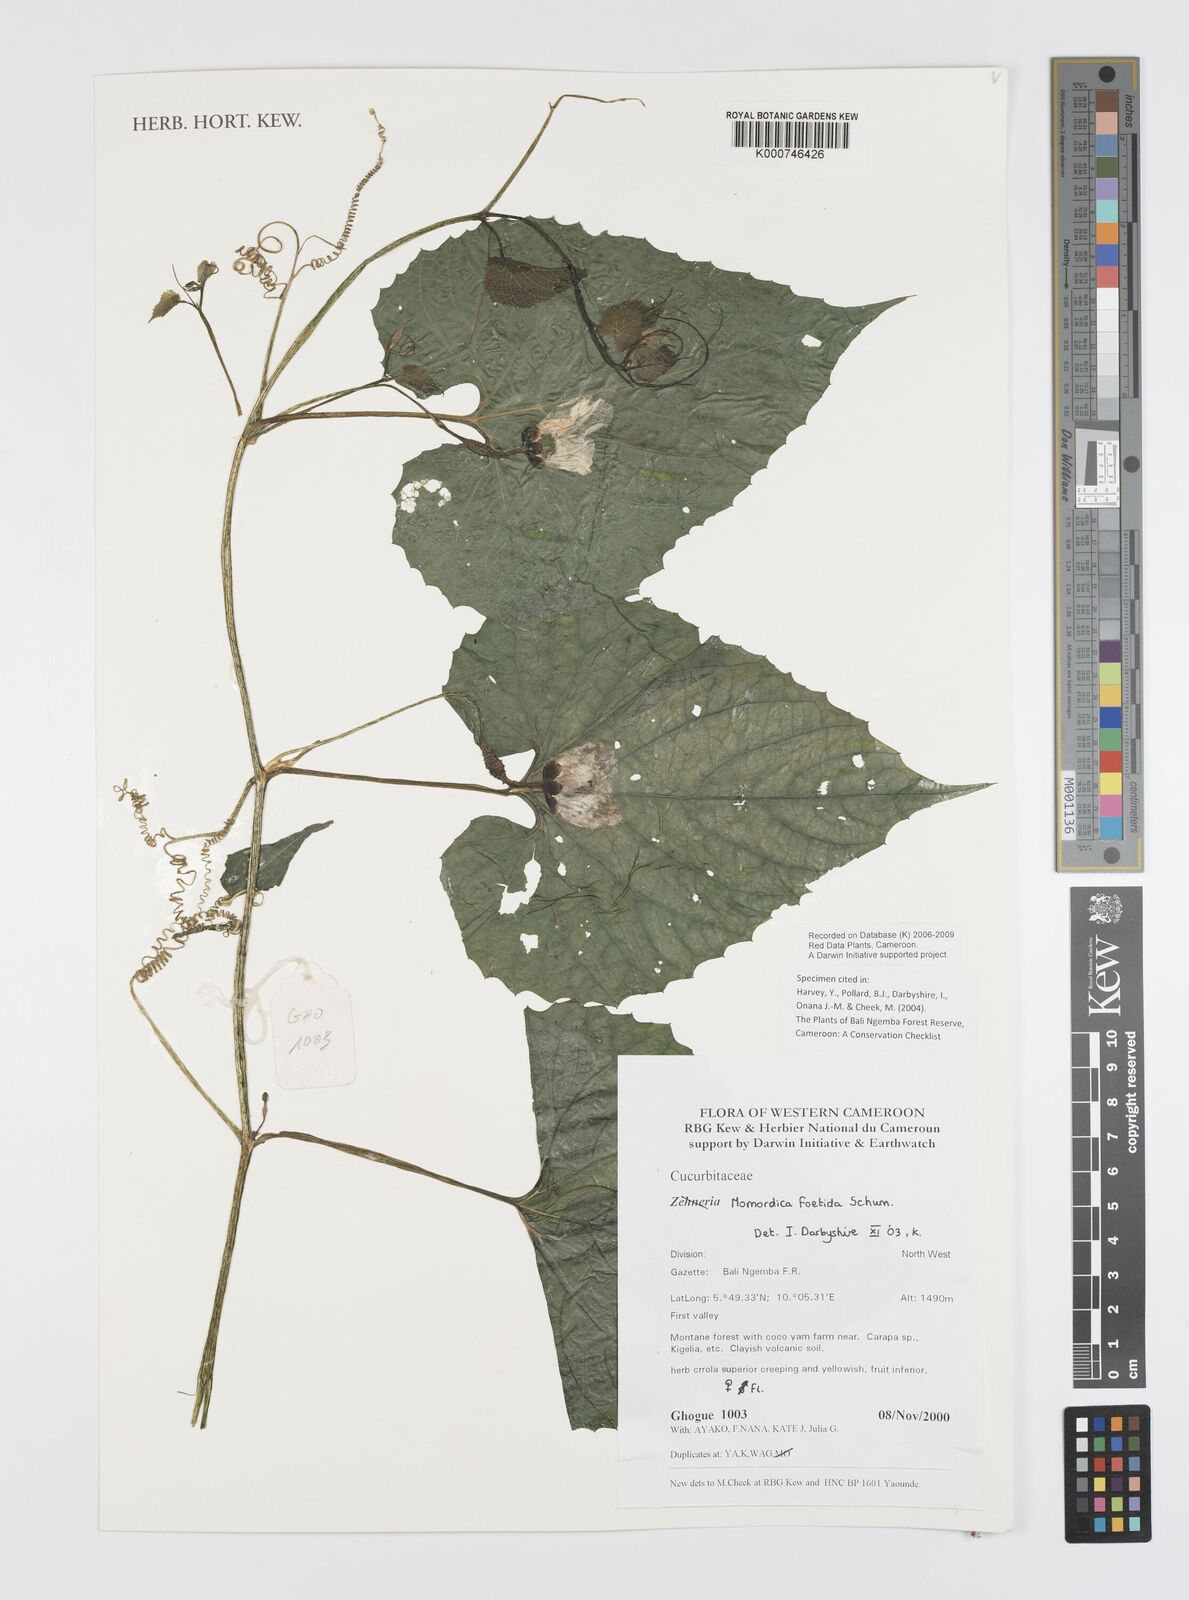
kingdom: Plantae
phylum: Tracheophyta
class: Magnoliopsida
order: Cucurbitales
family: Cucurbitaceae
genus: Momordica
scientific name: Momordica foetida
